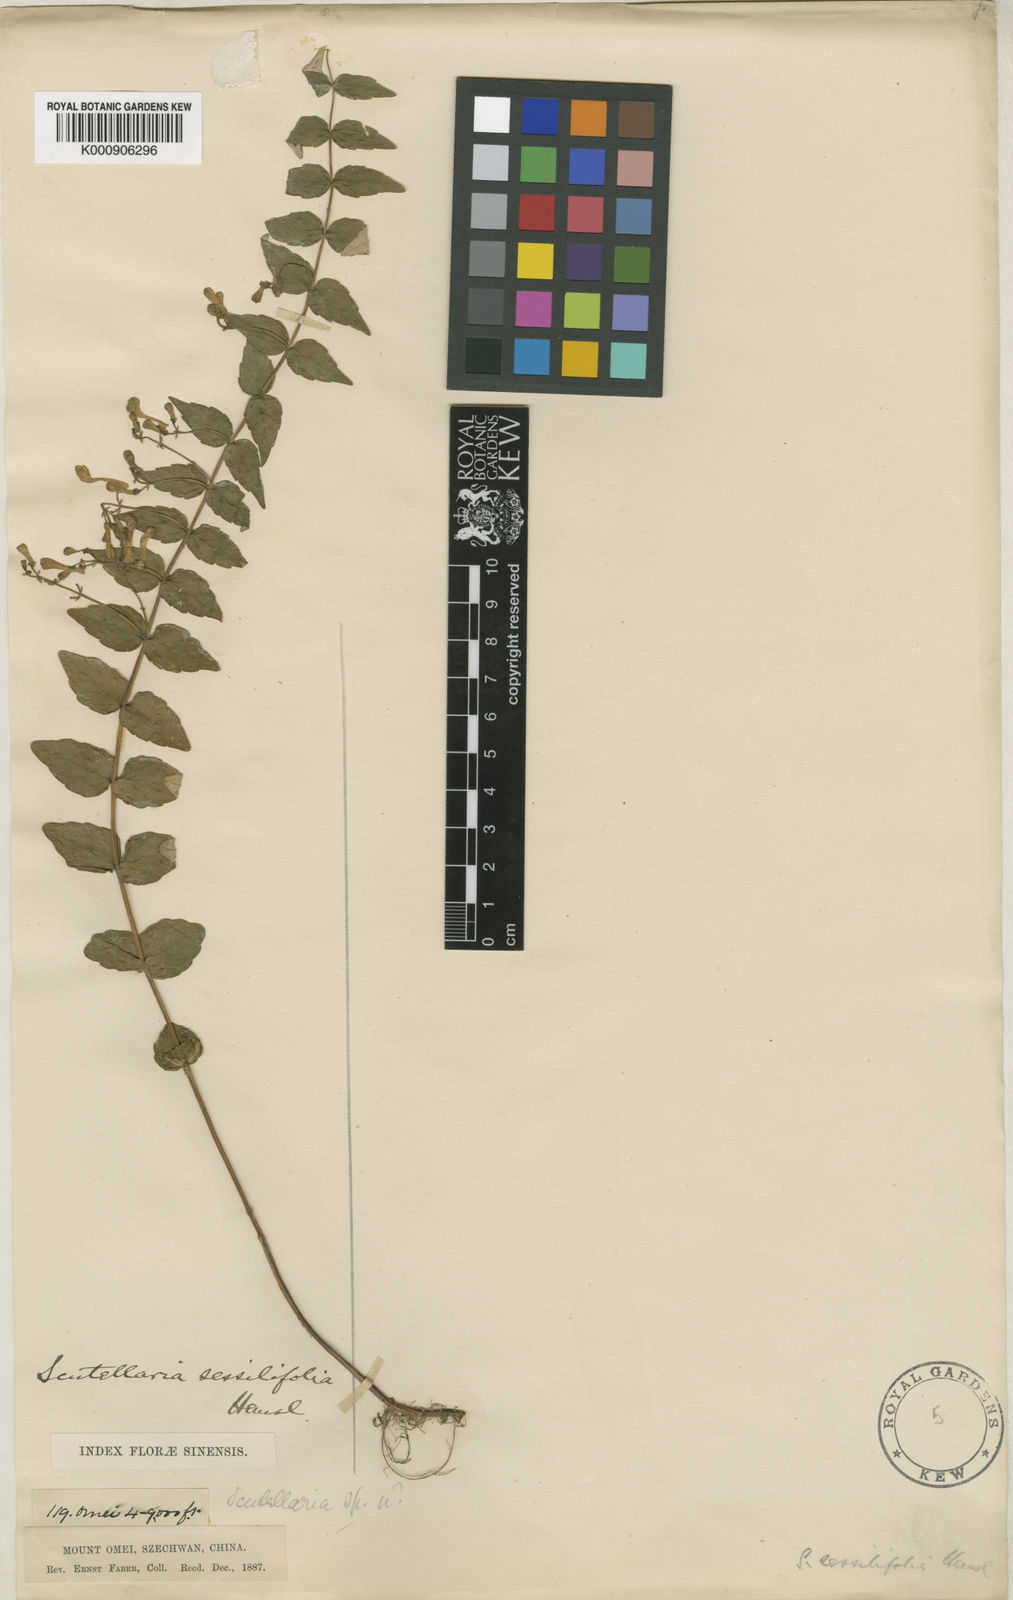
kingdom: Plantae
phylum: Tracheophyta
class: Magnoliopsida
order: Lamiales
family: Lamiaceae
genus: Scutellaria
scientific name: Scutellaria sessilifolia
